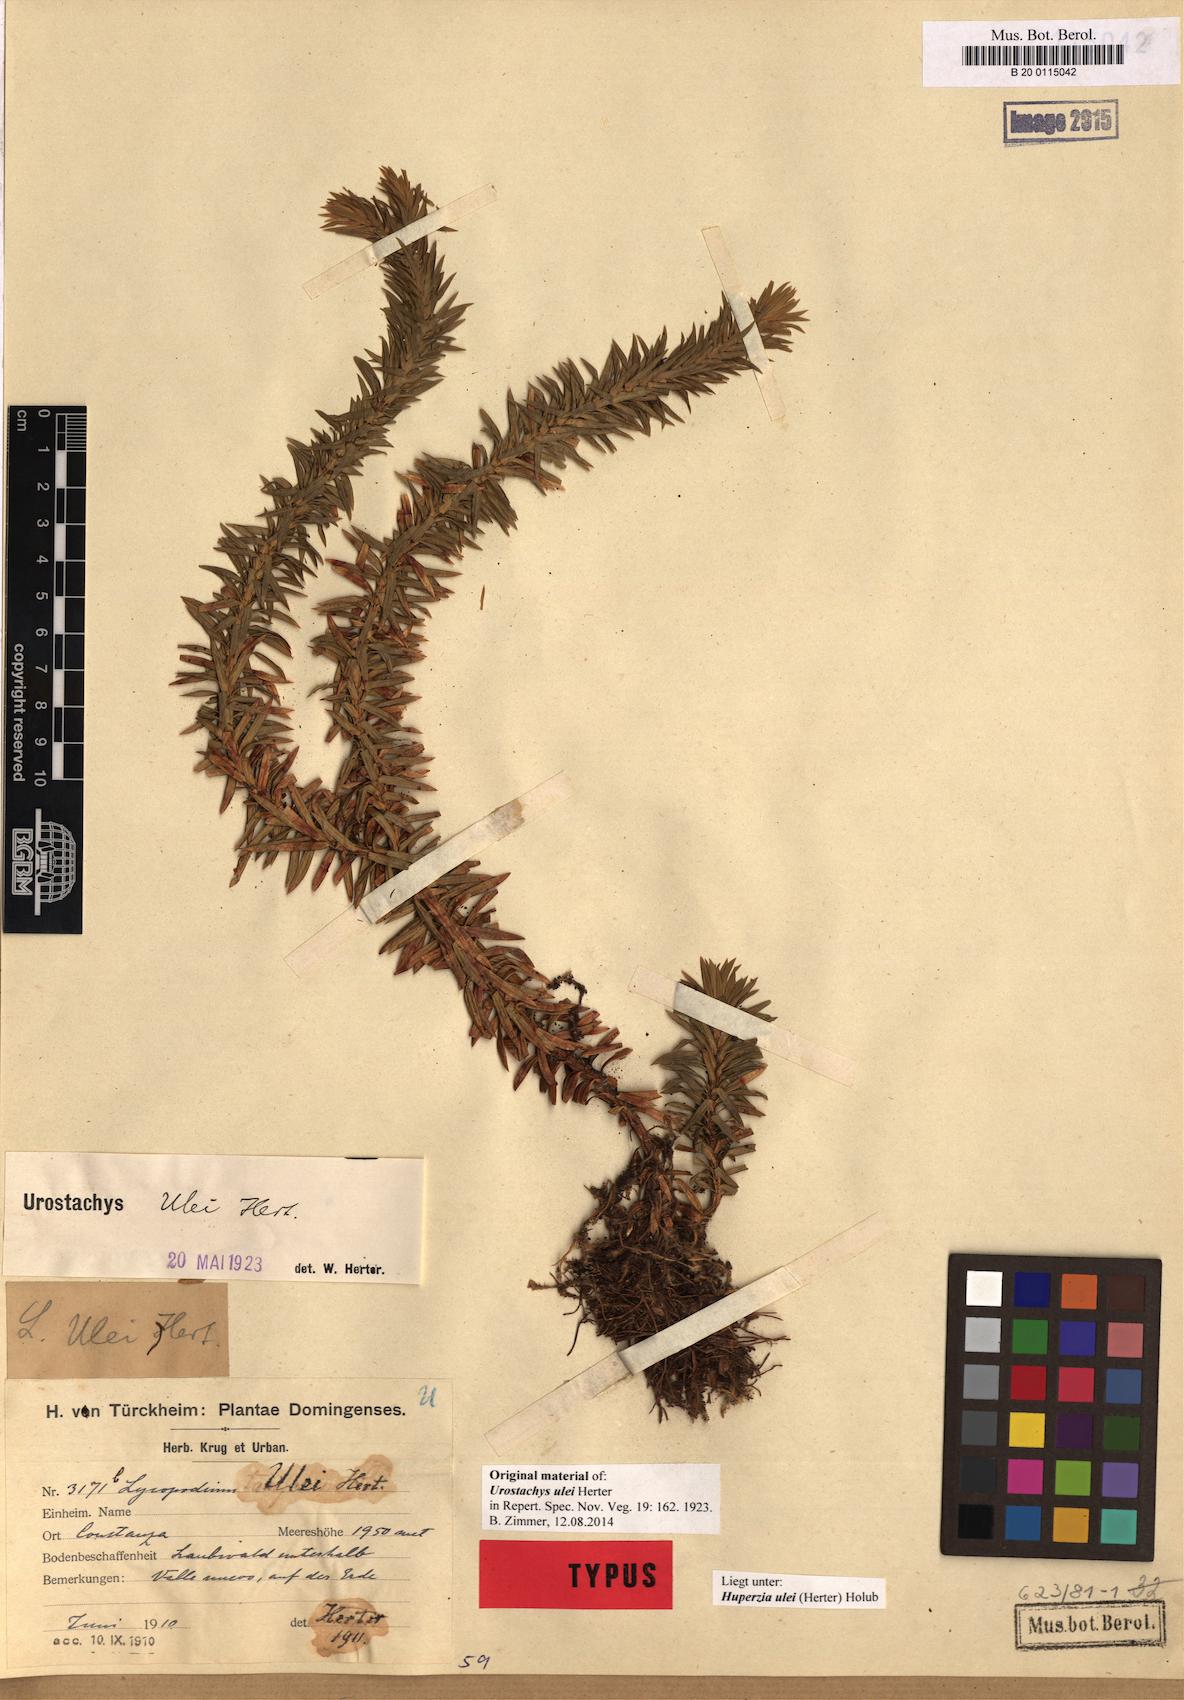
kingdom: Plantae
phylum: Tracheophyta
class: Lycopodiopsida
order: Lycopodiales
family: Lycopodiaceae
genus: Phlegmariurus
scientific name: Phlegmariurus sellowianus
